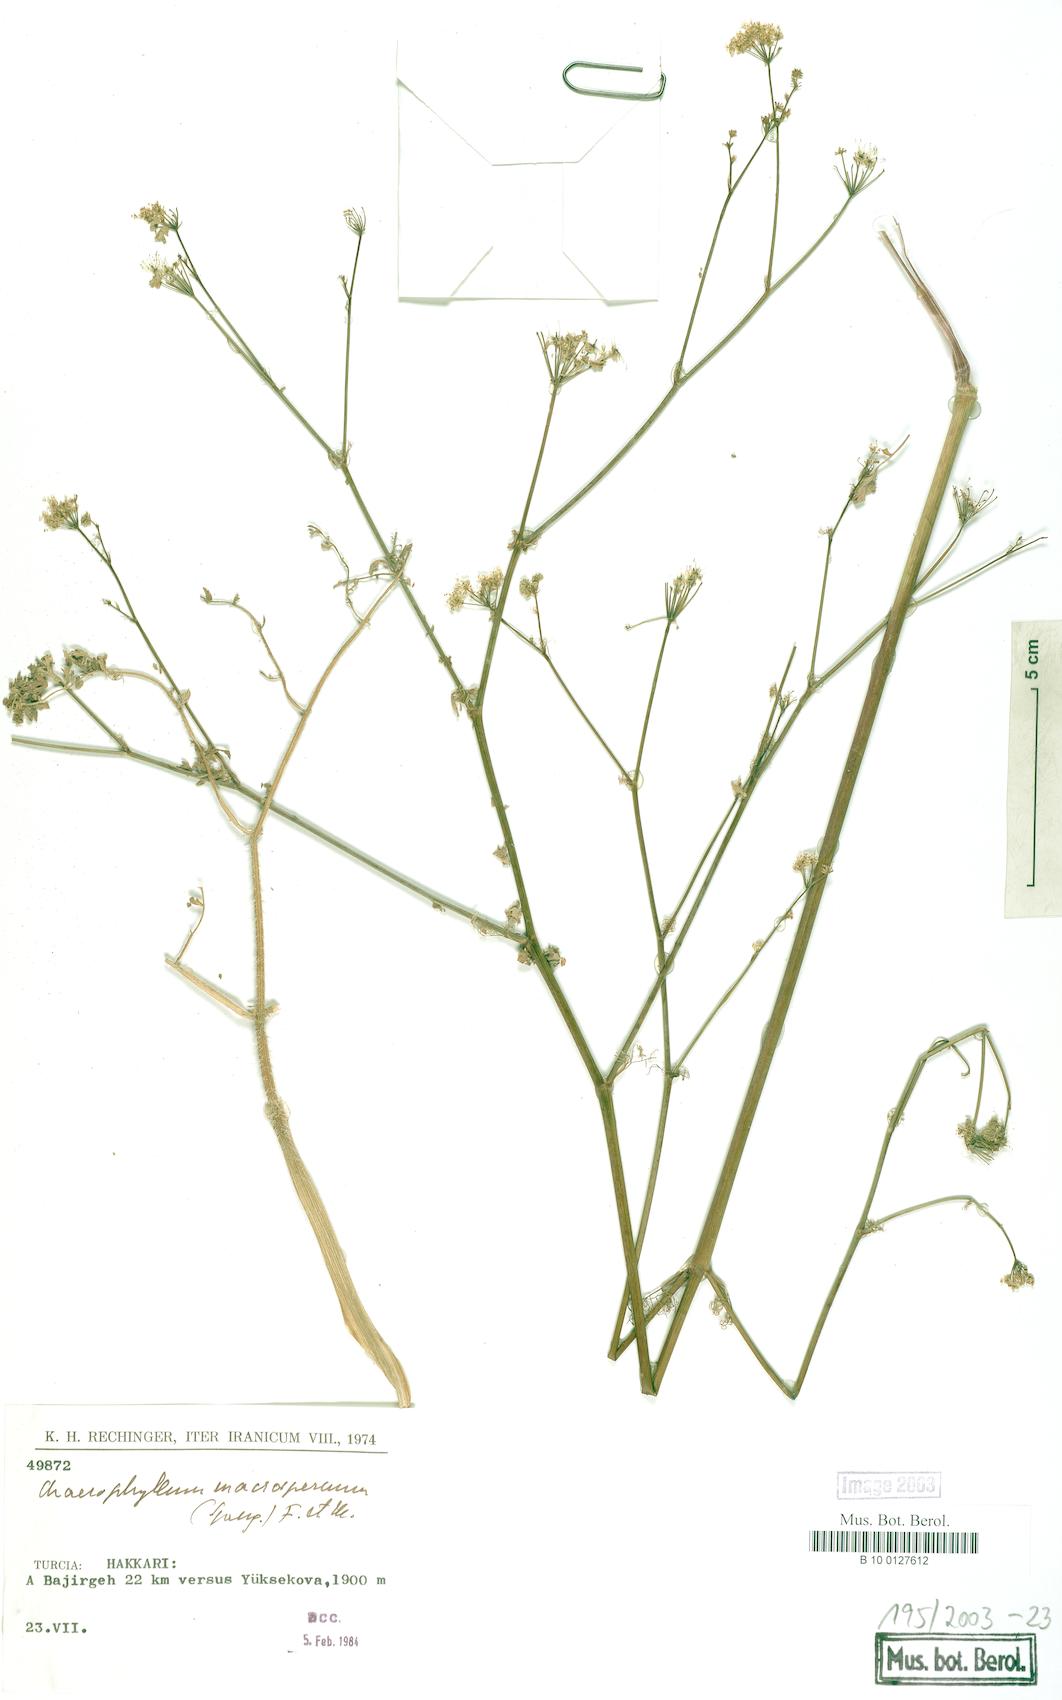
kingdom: Plantae
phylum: Tracheophyta
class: Magnoliopsida
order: Apiales
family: Apiaceae
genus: Chaerophyllum
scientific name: Chaerophyllum macrospermum
